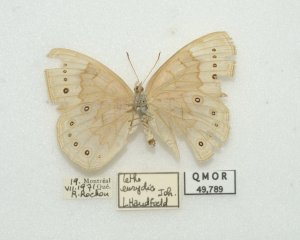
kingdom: Animalia
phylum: Arthropoda
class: Insecta
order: Lepidoptera
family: Nymphalidae
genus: Lethe
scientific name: Lethe eurydice
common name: Eyed Brown
